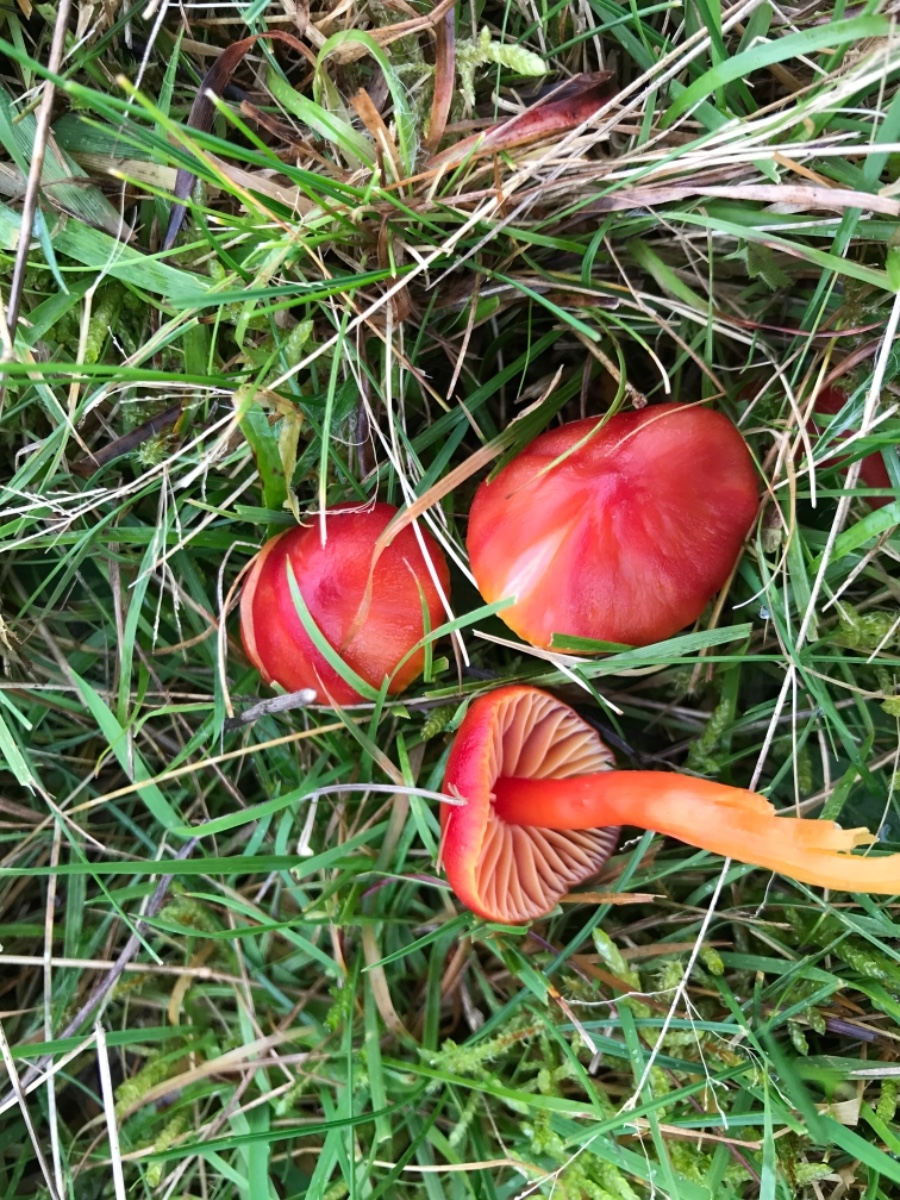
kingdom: Fungi
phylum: Basidiomycota
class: Agaricomycetes
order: Agaricales
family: Hygrophoraceae
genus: Hygrocybe
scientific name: Hygrocybe coccinea
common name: cinnober-vokshat
